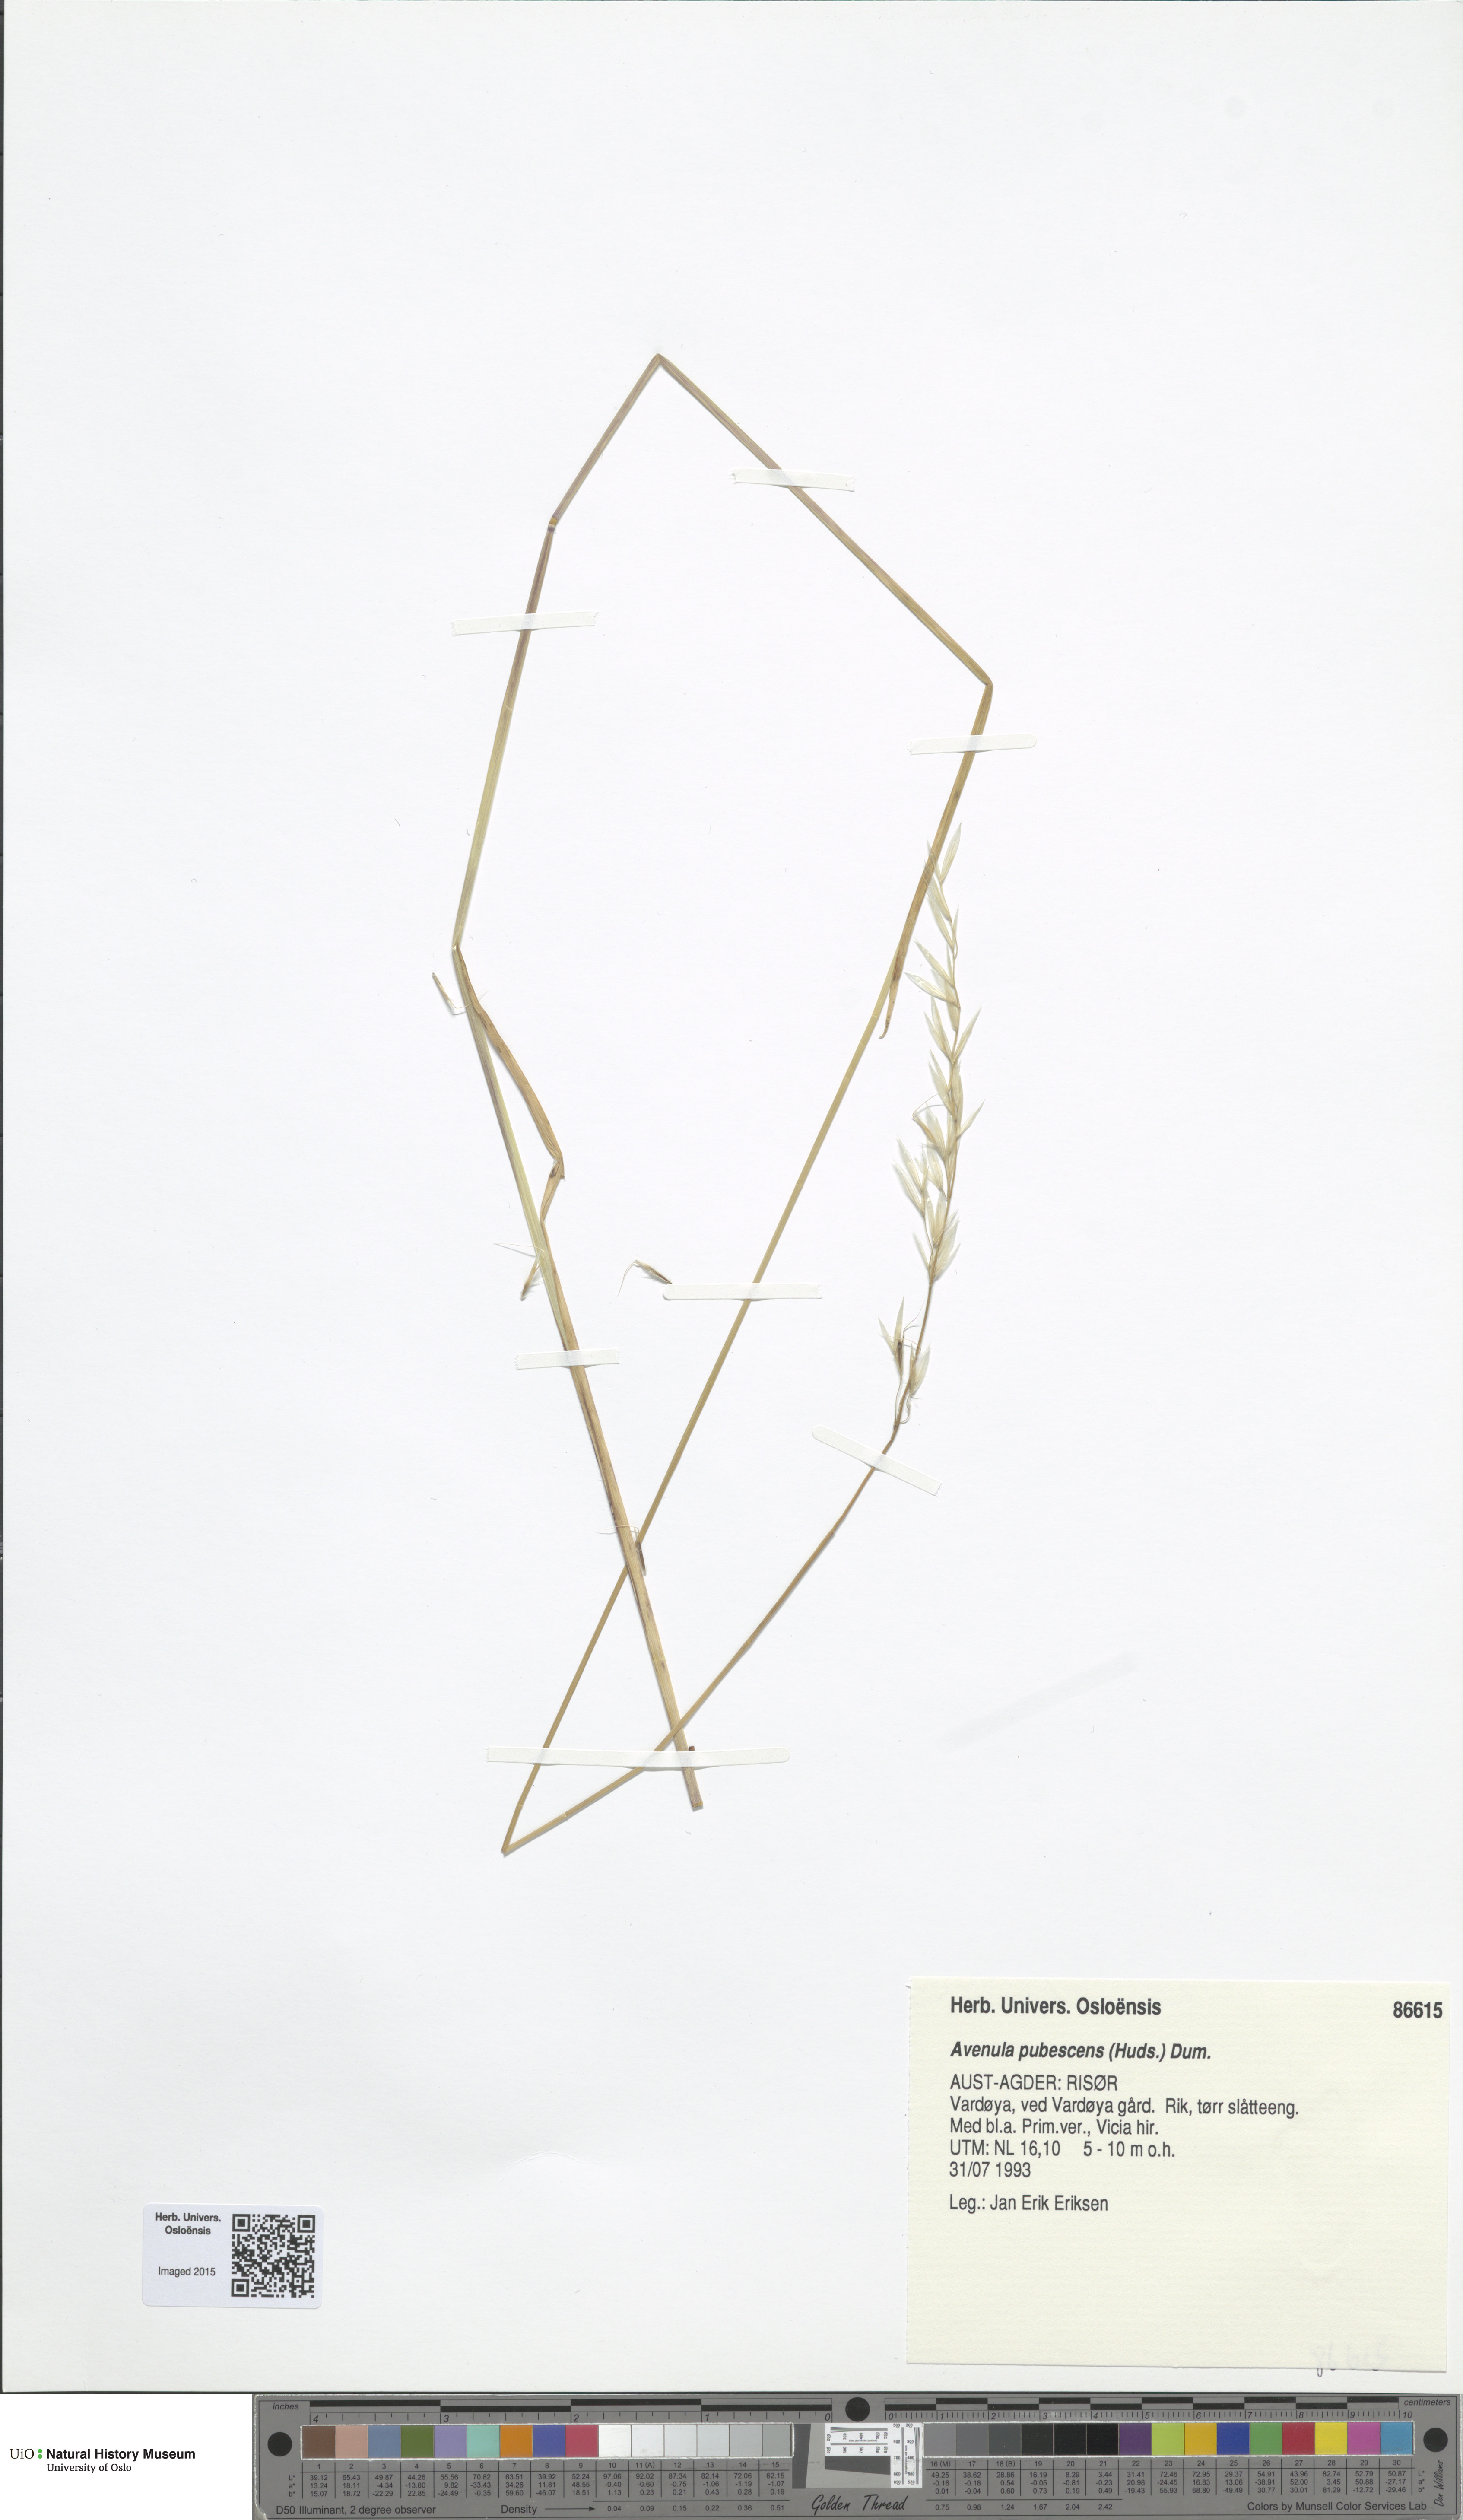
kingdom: Plantae
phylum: Tracheophyta
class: Liliopsida
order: Poales
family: Poaceae
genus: Avenula
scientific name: Avenula pubescens
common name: Downy alpine oatgrass
